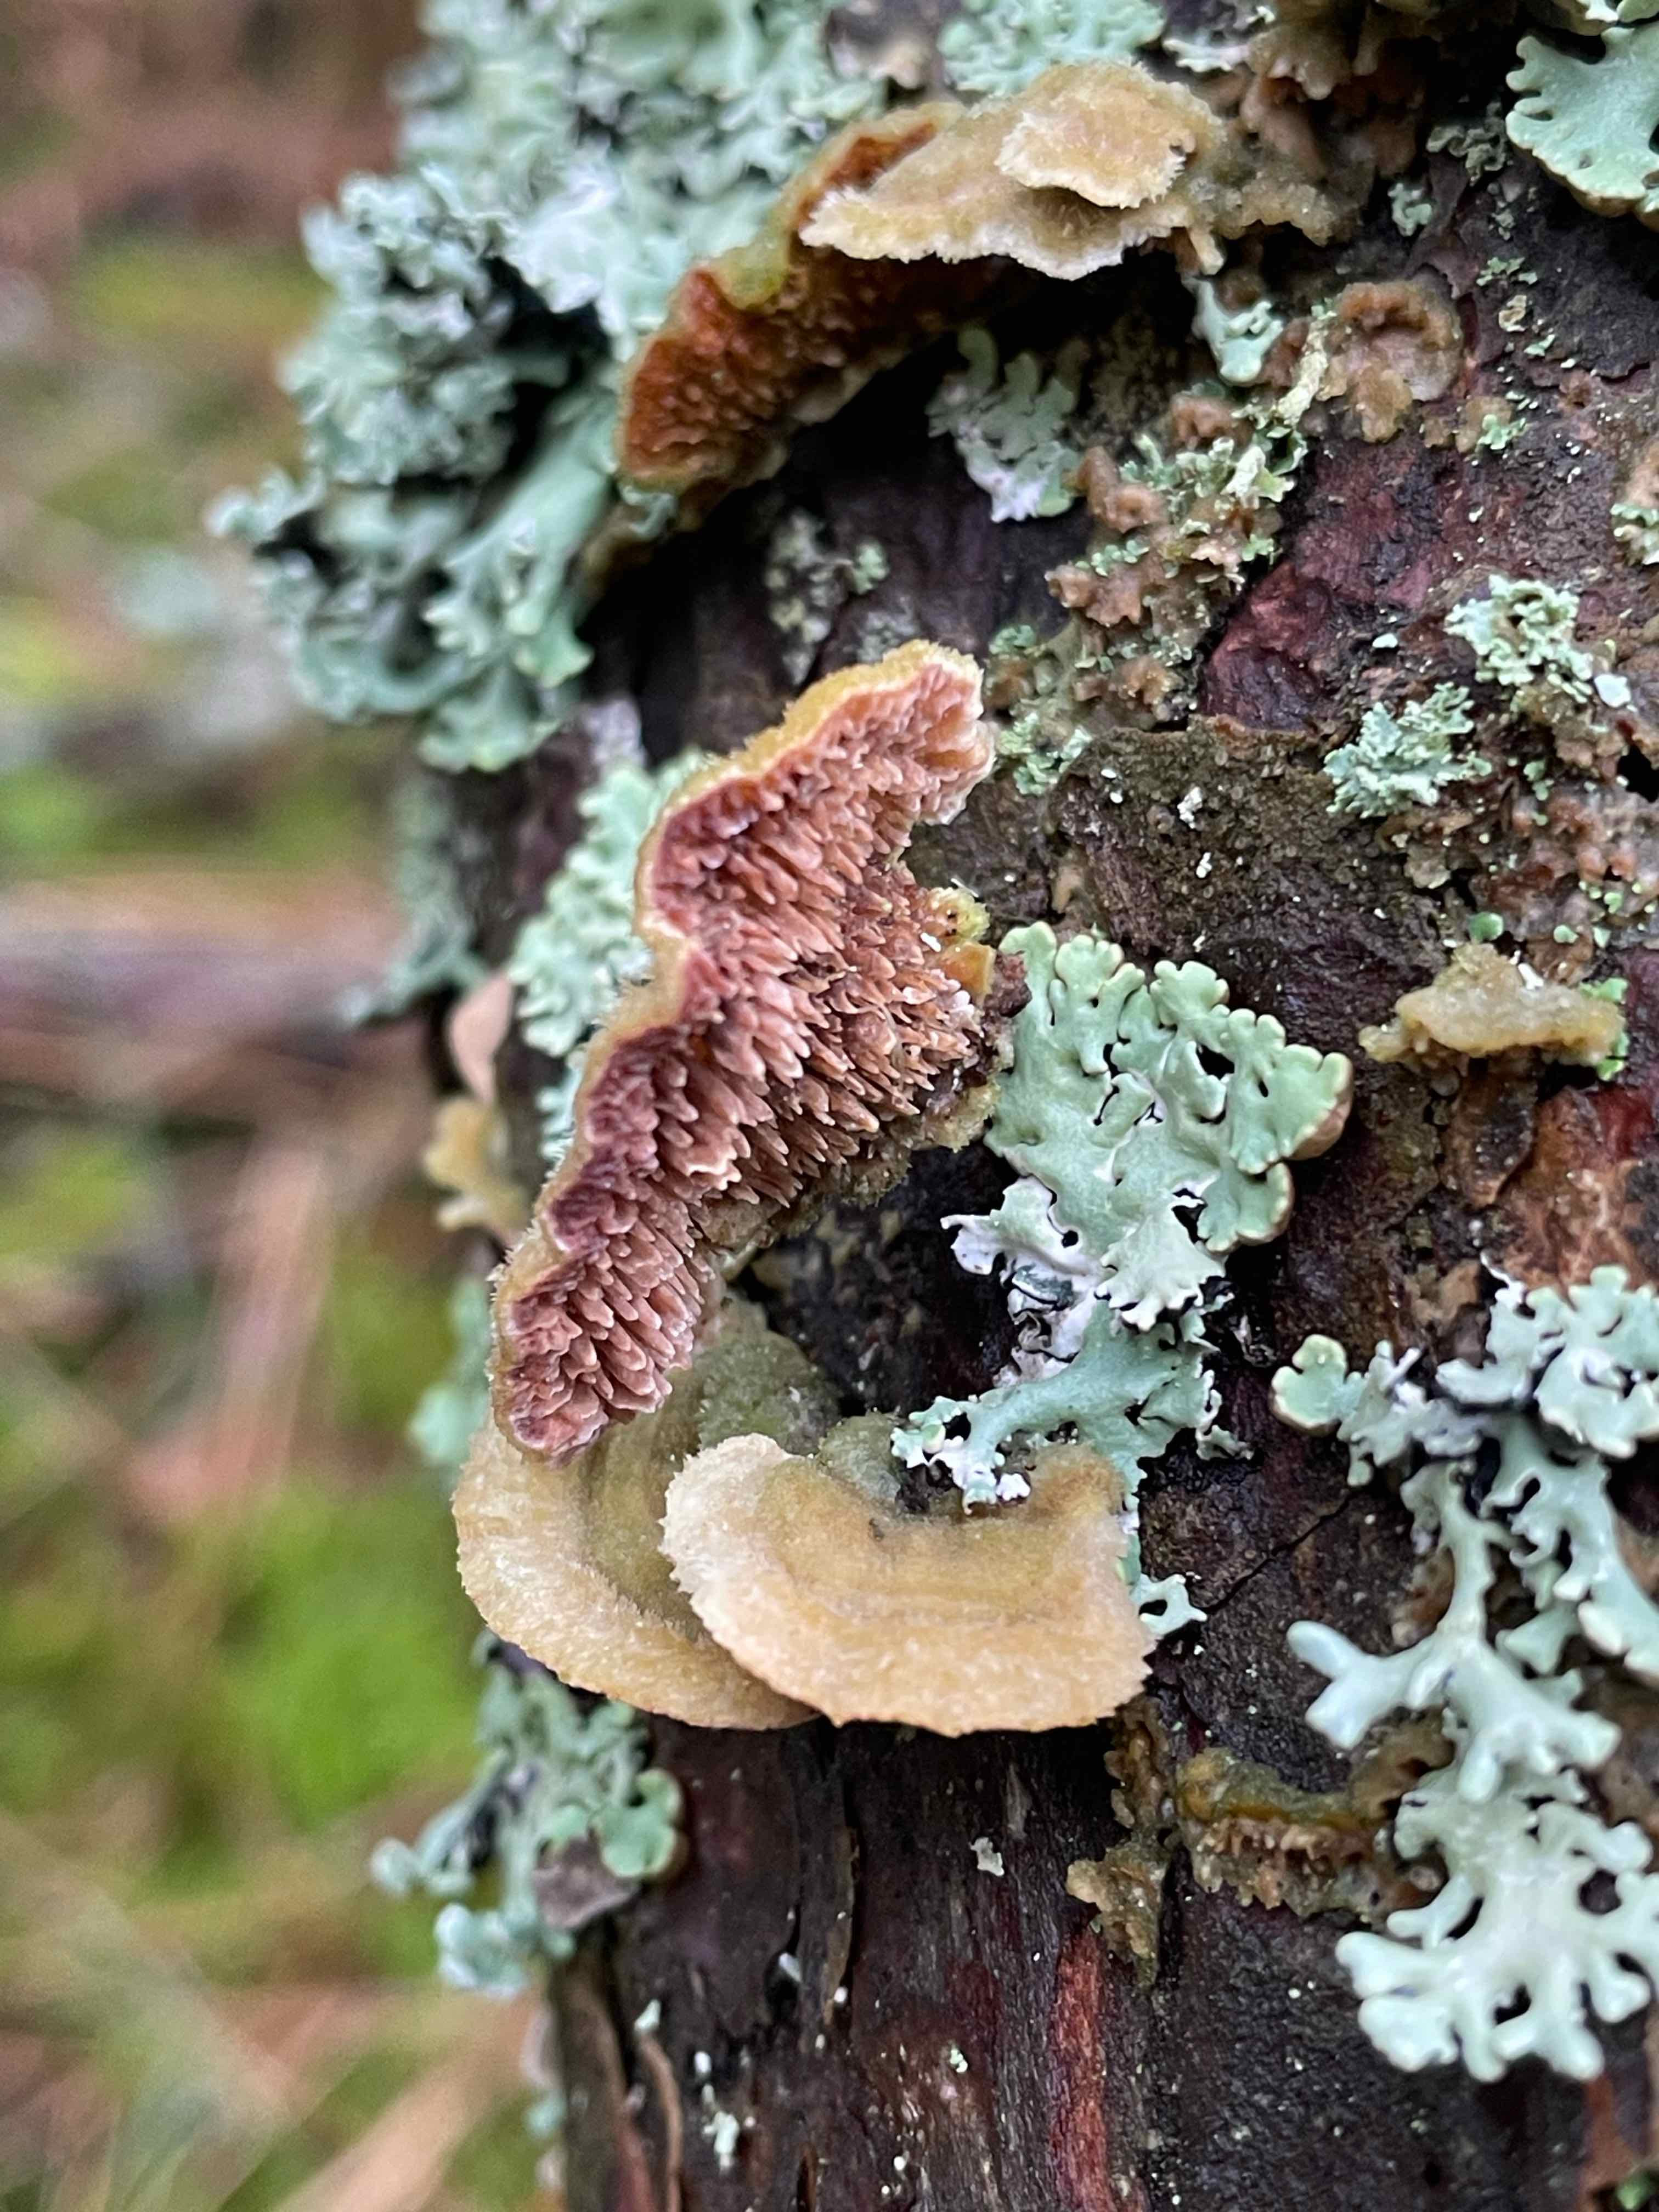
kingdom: Fungi
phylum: Basidiomycota
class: Agaricomycetes
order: Hymenochaetales
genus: Trichaptum
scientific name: Trichaptum fuscoviolaceum
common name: tandet violporesvamp
